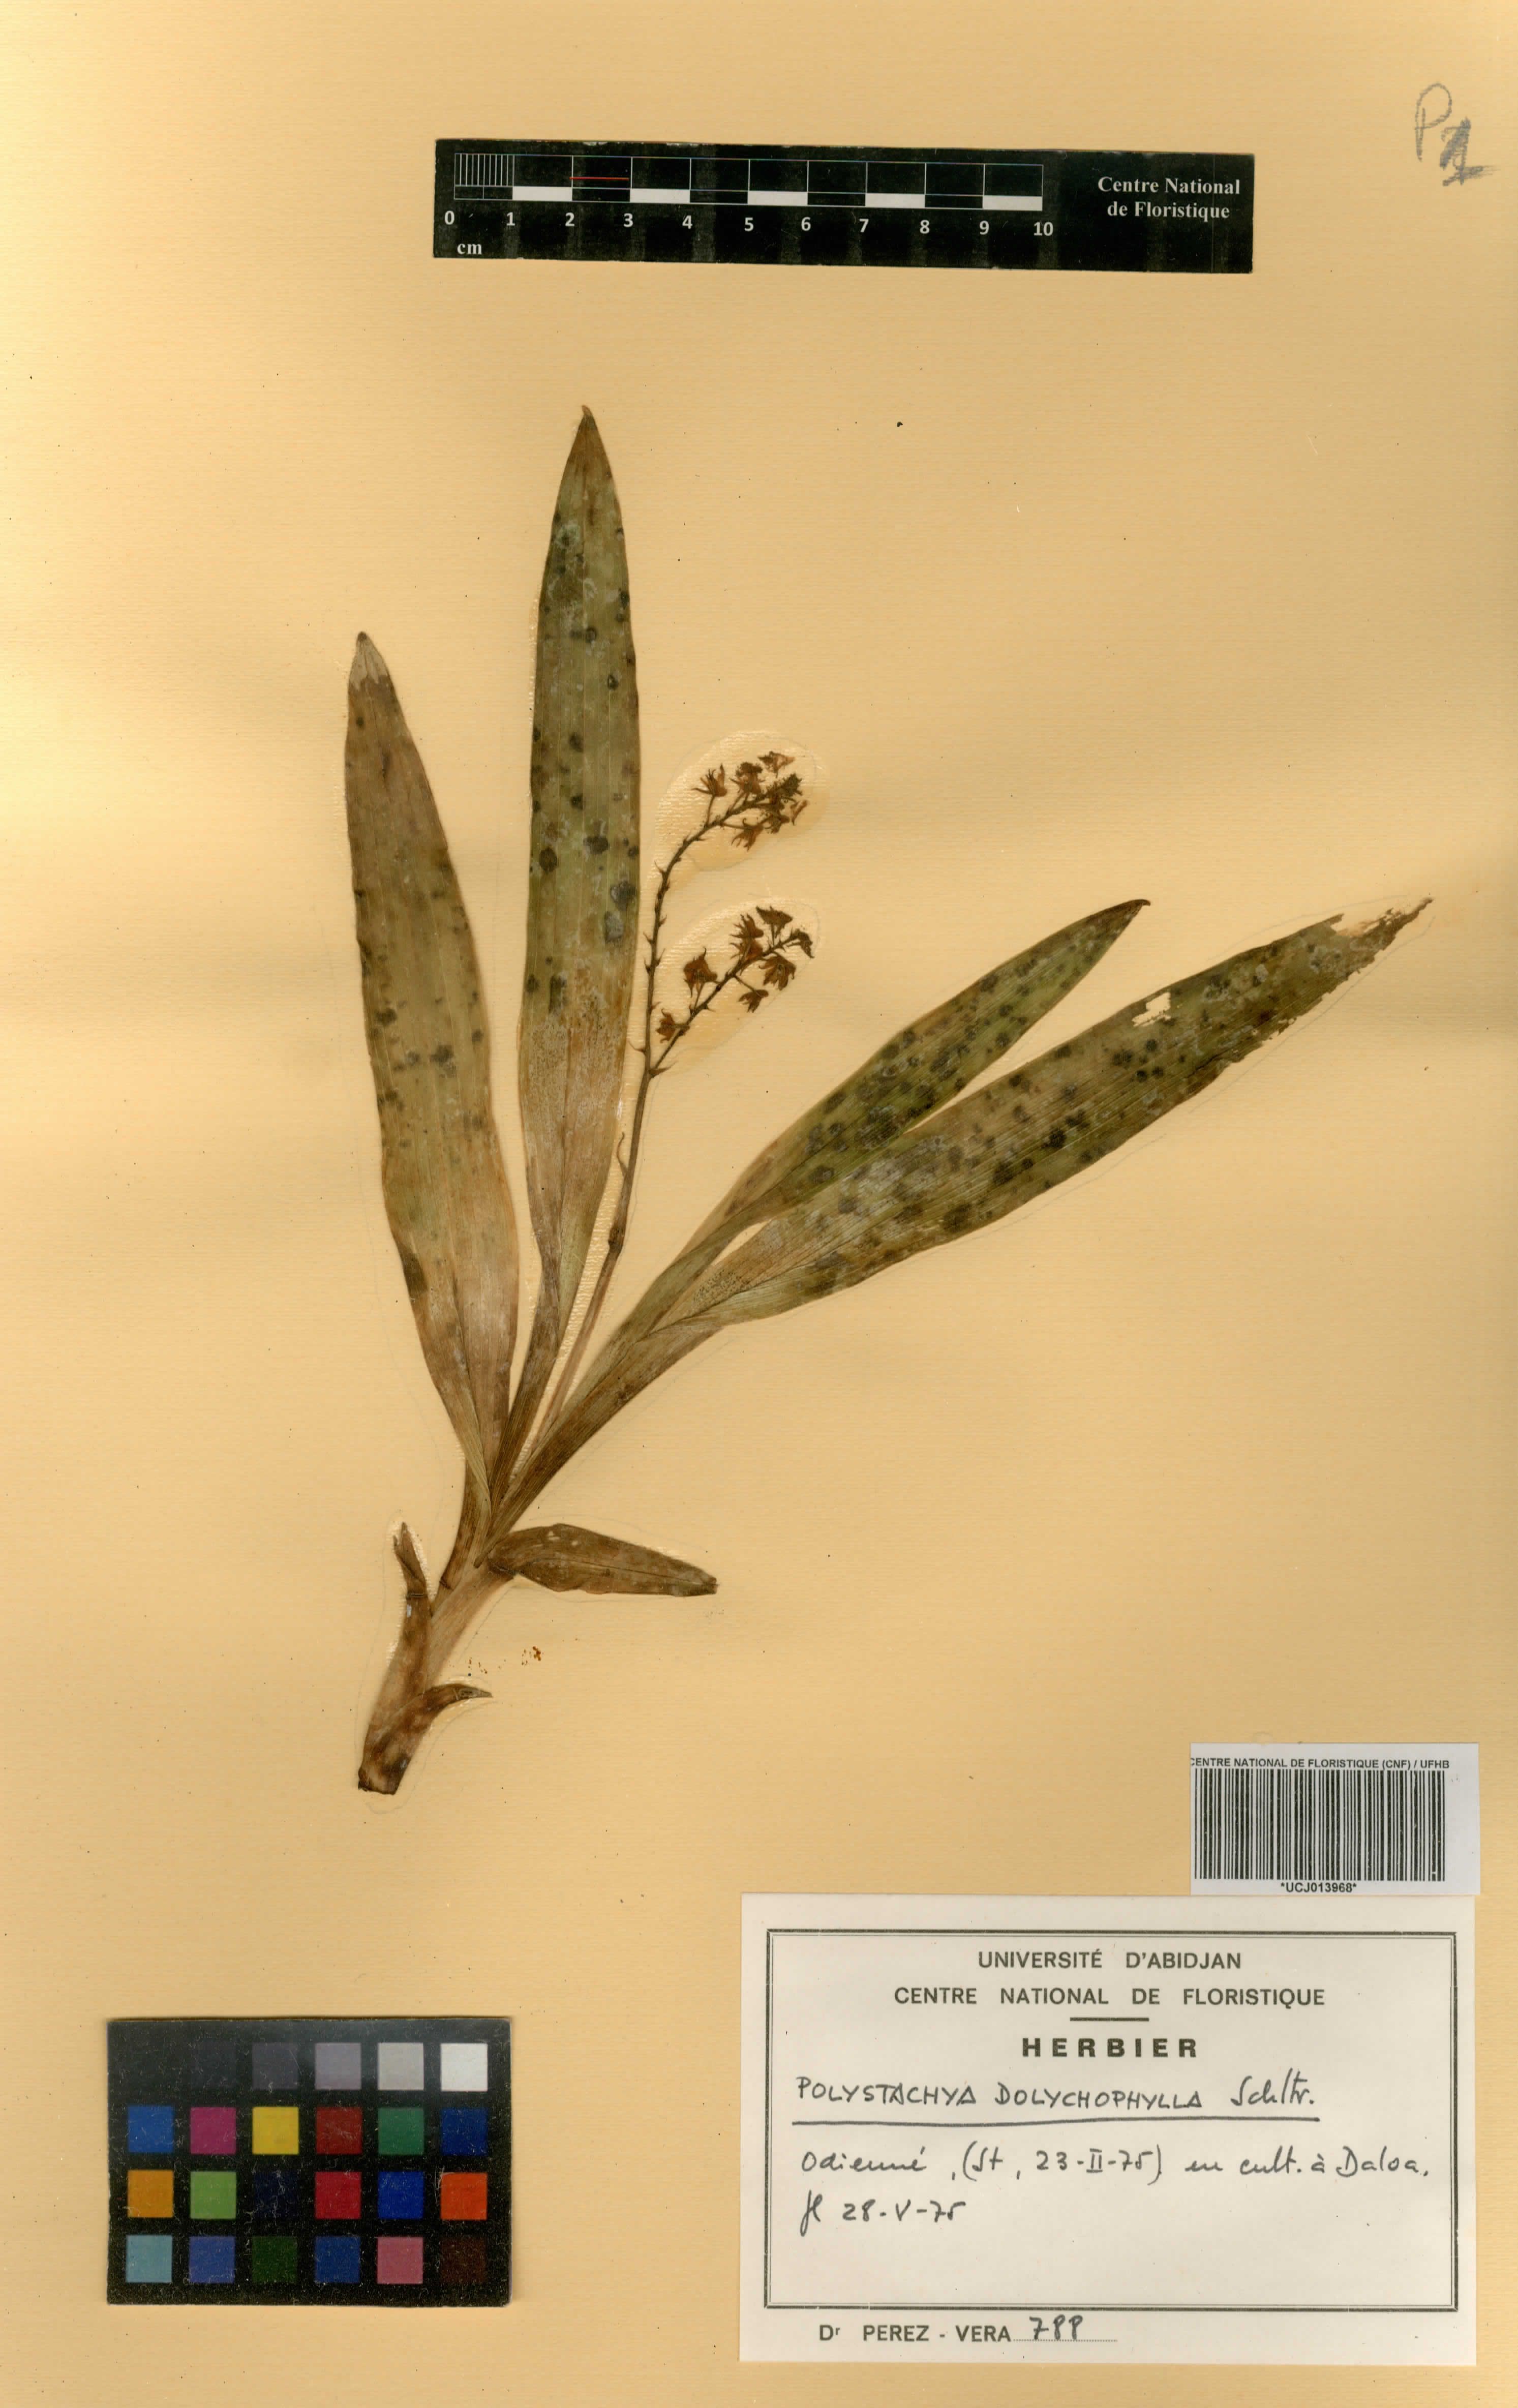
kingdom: Plantae
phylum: Tracheophyta
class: Liliopsida
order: Asparagales
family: Orchidaceae
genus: Polystachya
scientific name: Polystachya dolichophylla
